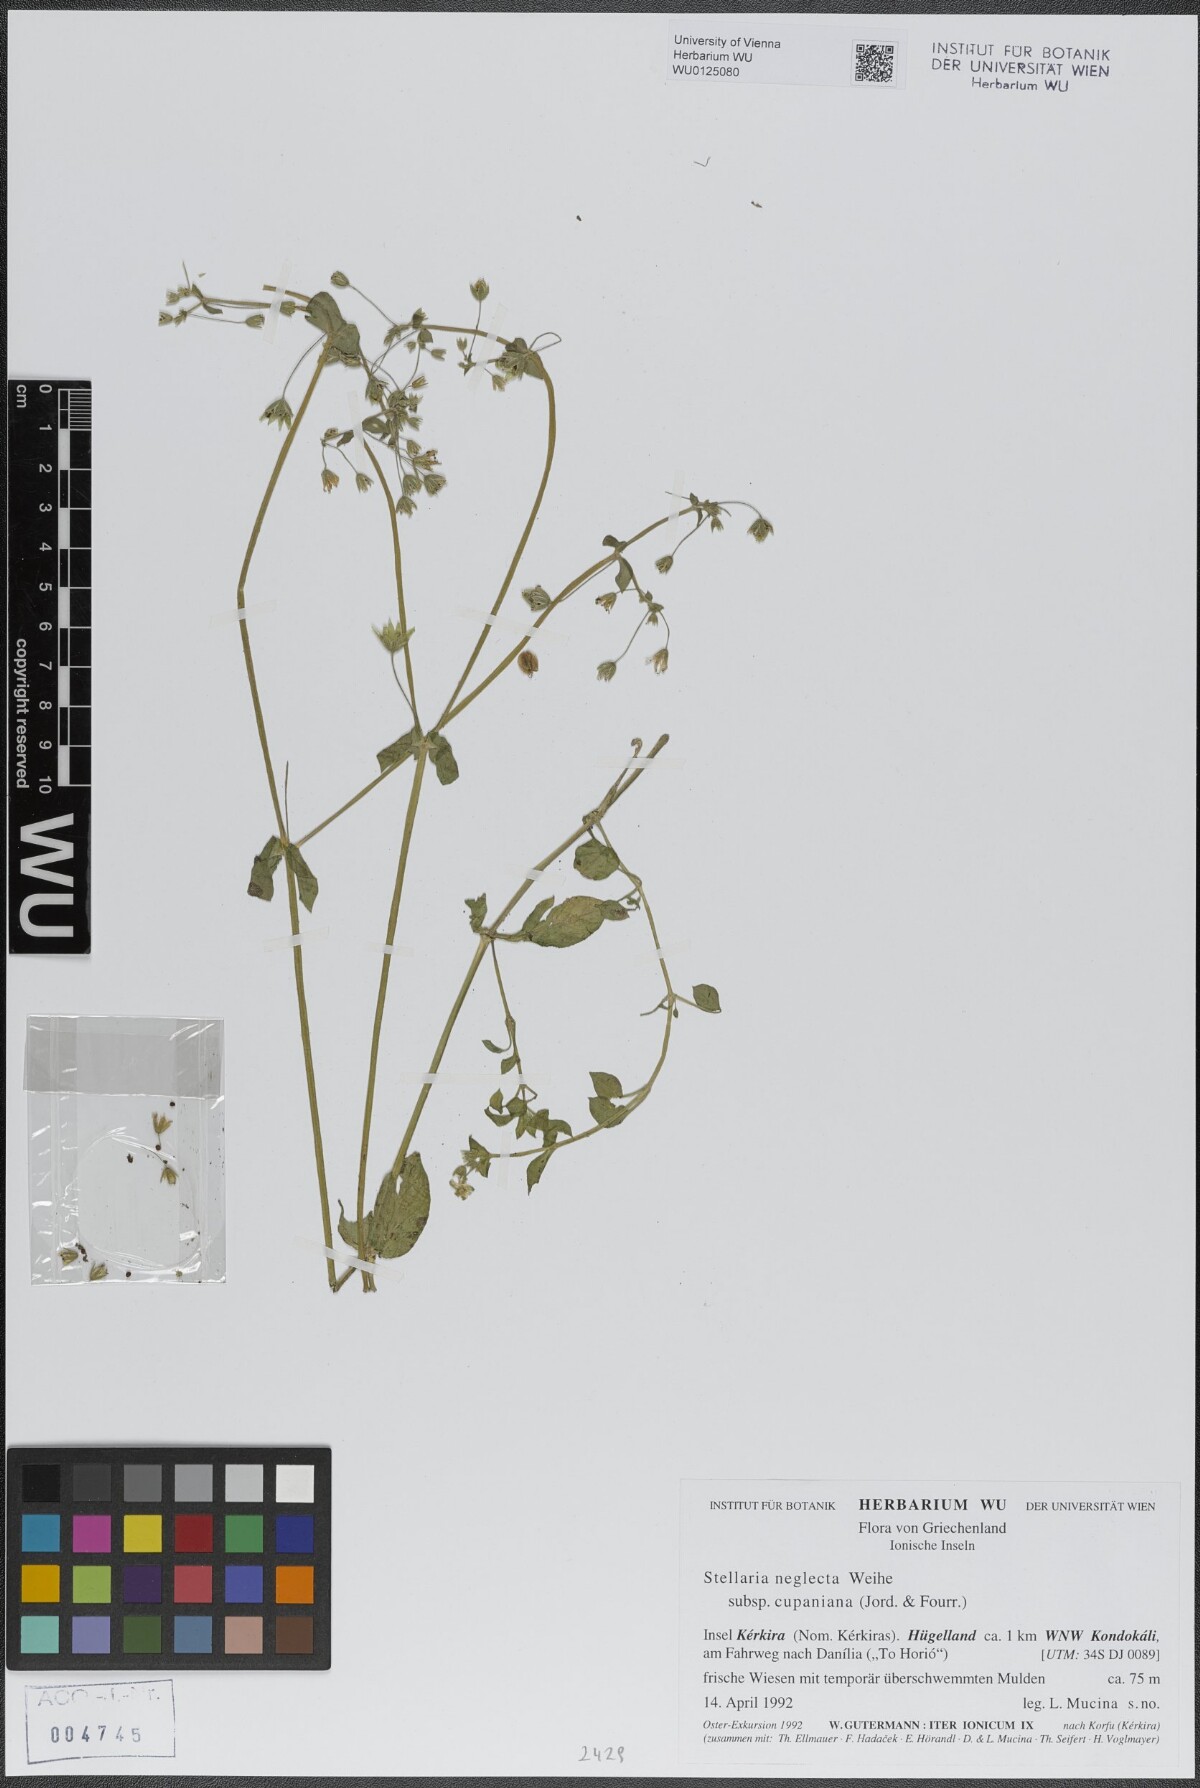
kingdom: Plantae
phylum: Tracheophyta
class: Magnoliopsida
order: Caryophyllales
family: Caryophyllaceae
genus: Stellaria
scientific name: Stellaria cupaniana
